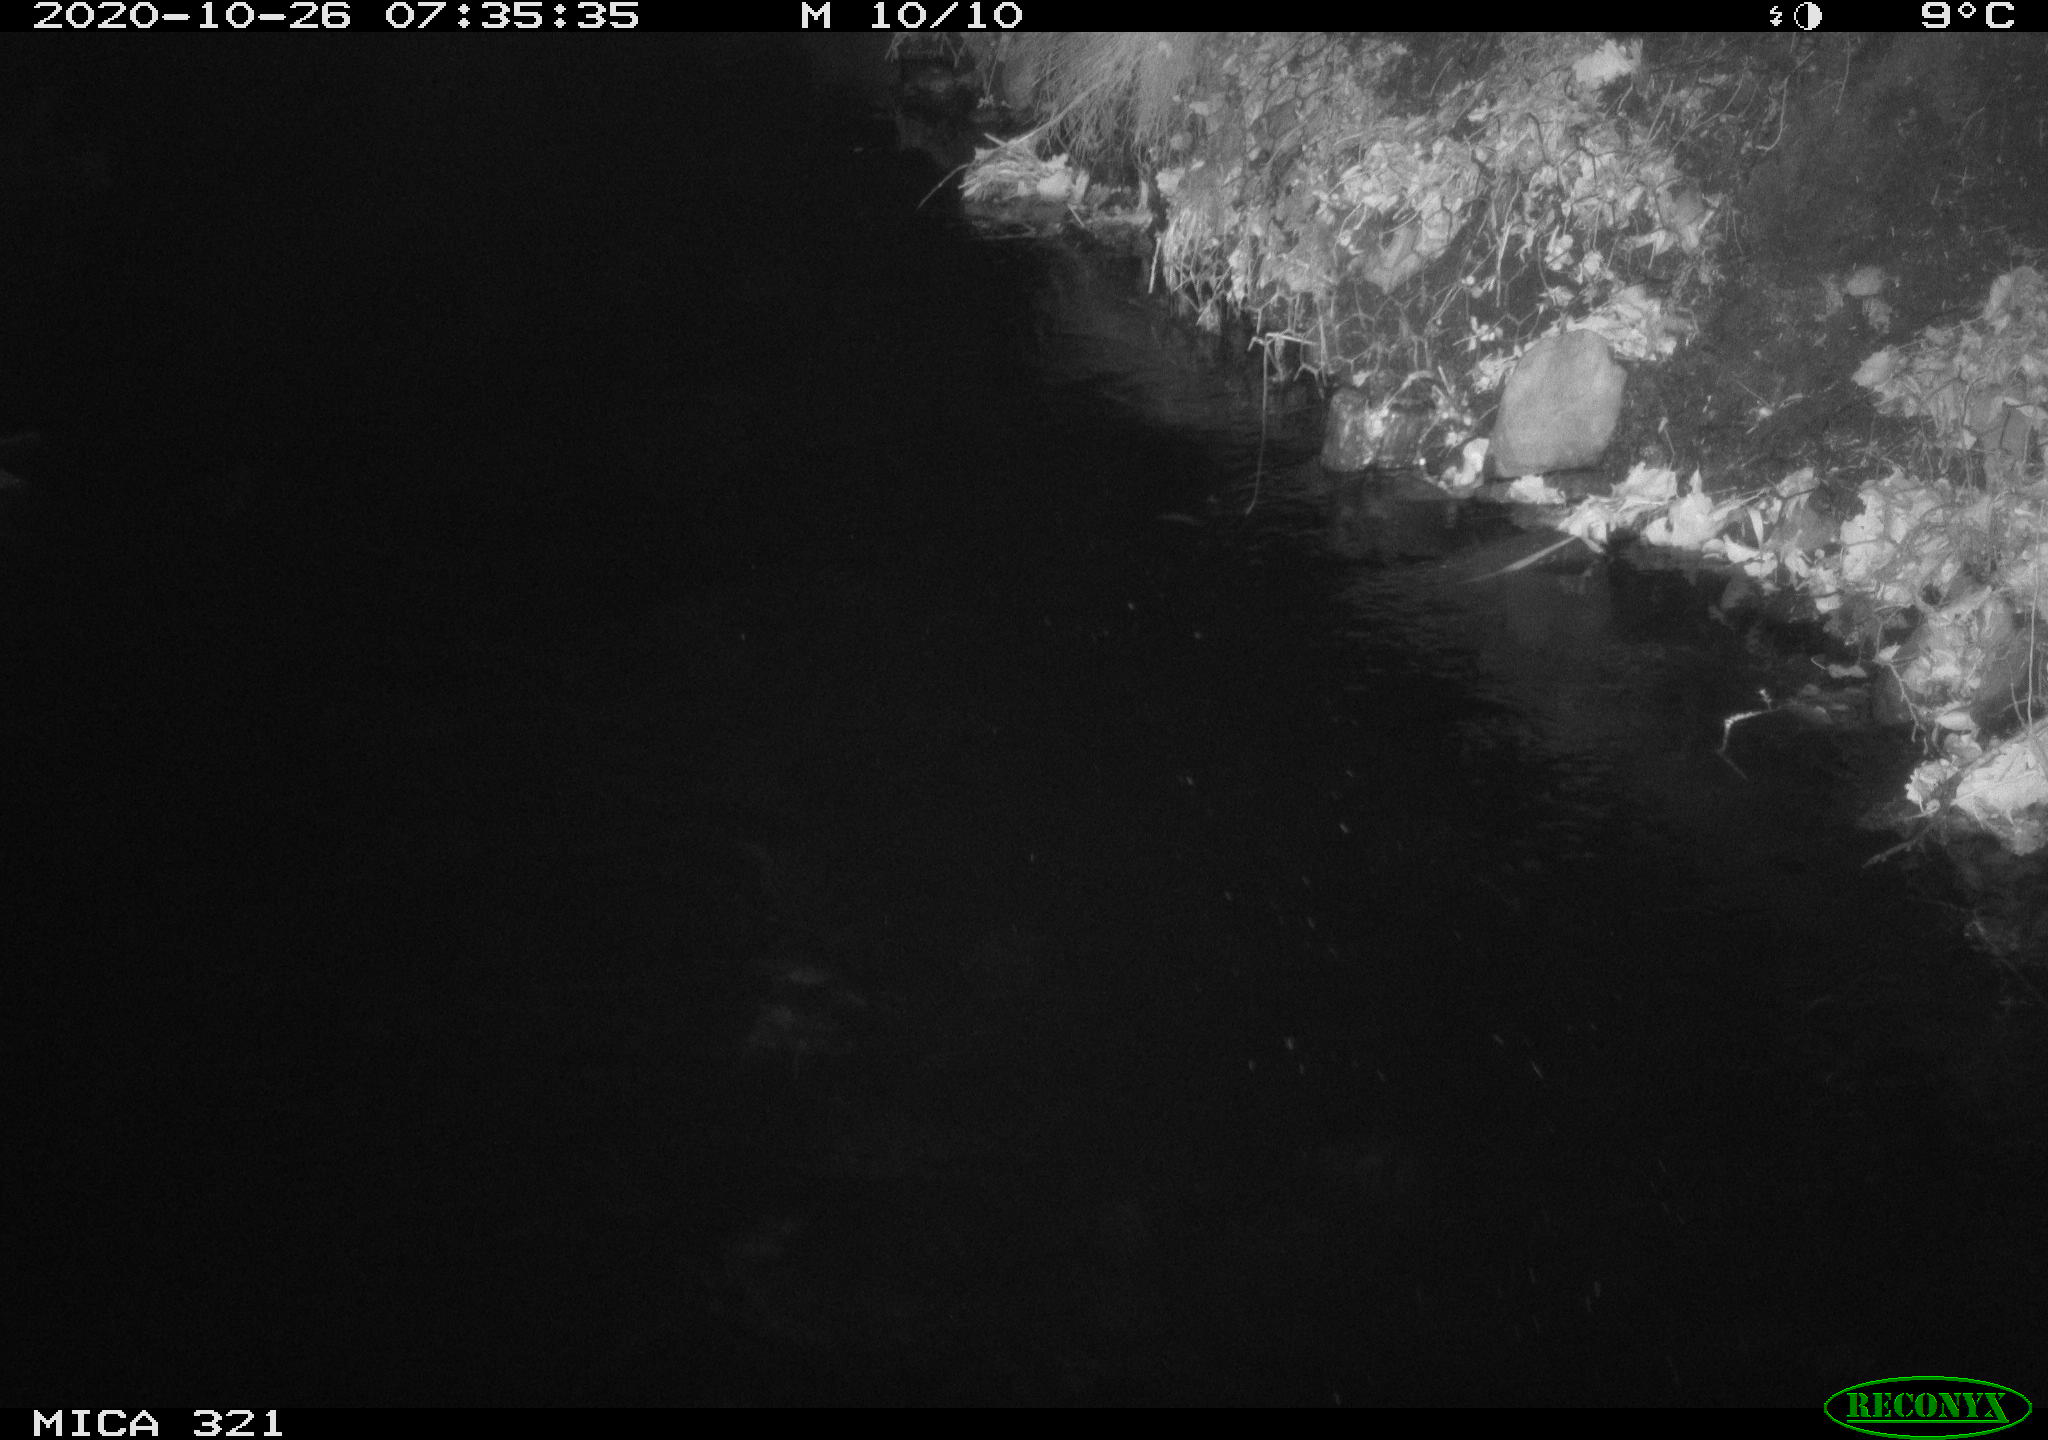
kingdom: Animalia
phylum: Chordata
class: Aves
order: Anseriformes
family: Anatidae
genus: Anas
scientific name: Anas platyrhynchos
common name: Mallard
